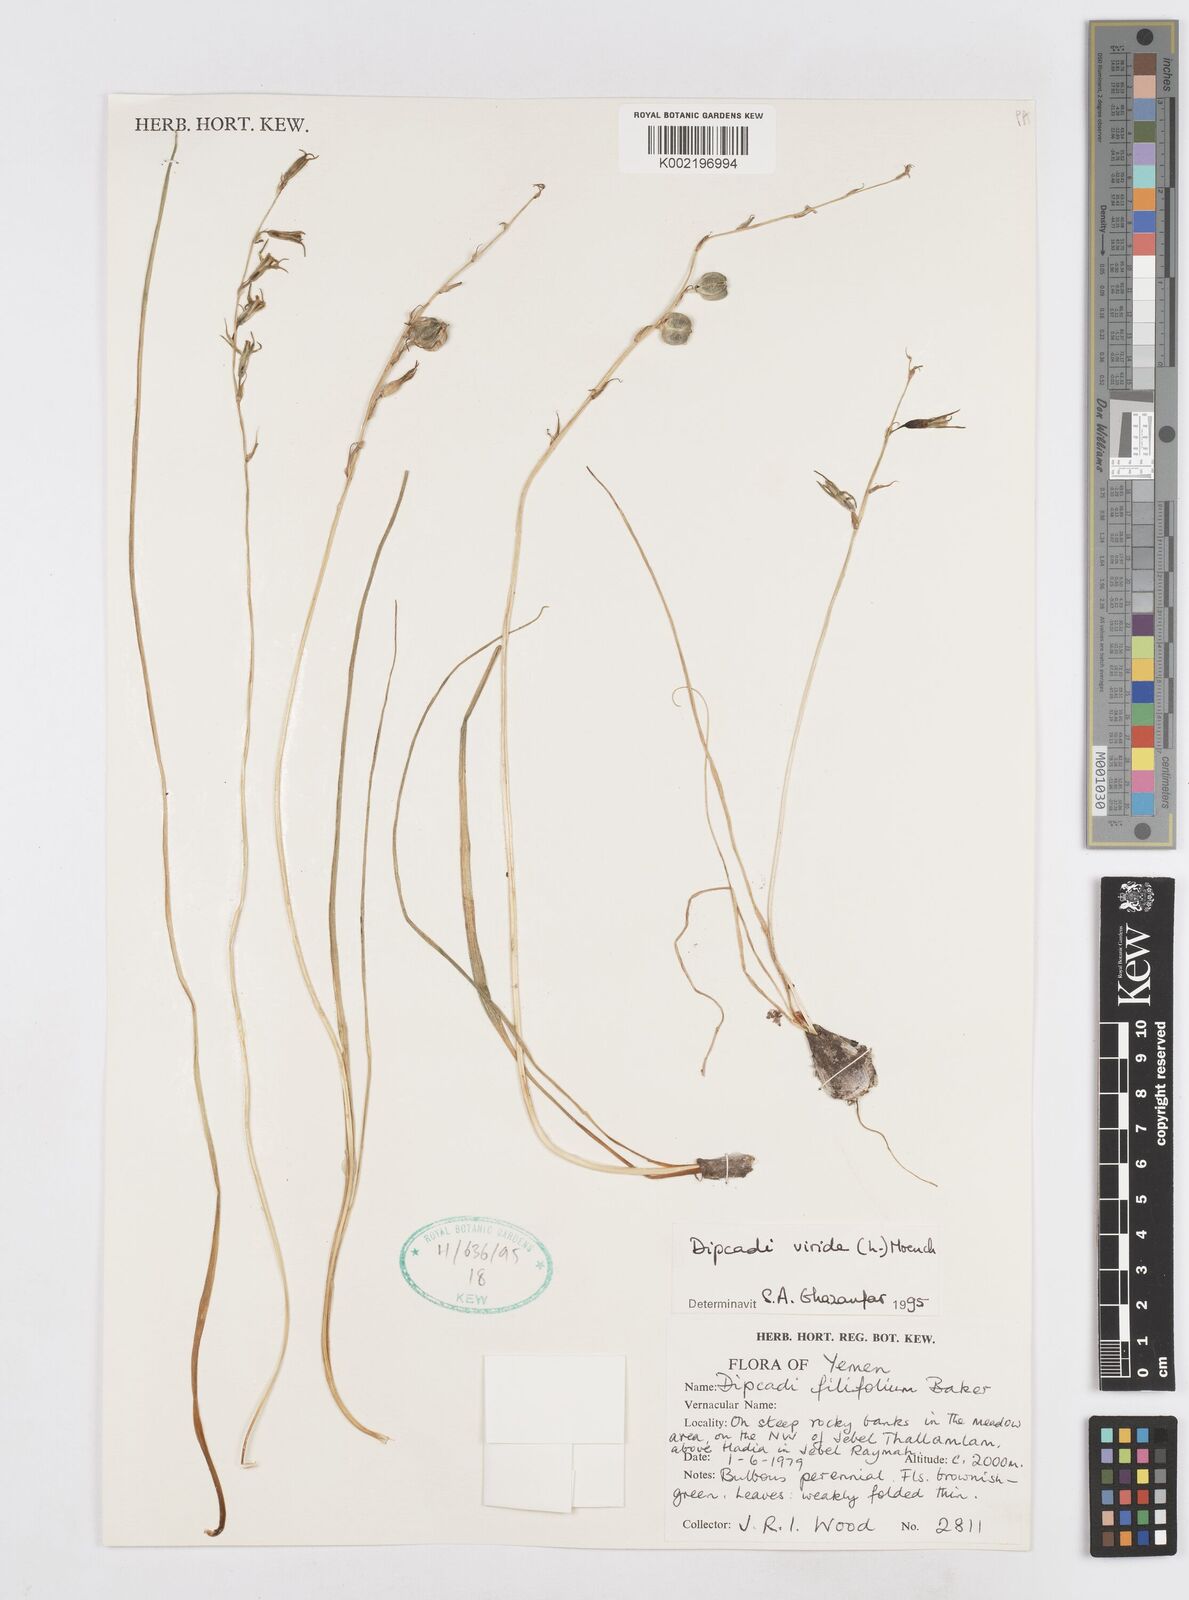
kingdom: Plantae
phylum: Tracheophyta
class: Liliopsida
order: Asparagales
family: Asparagaceae
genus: Dipcadi
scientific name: Dipcadi viride
